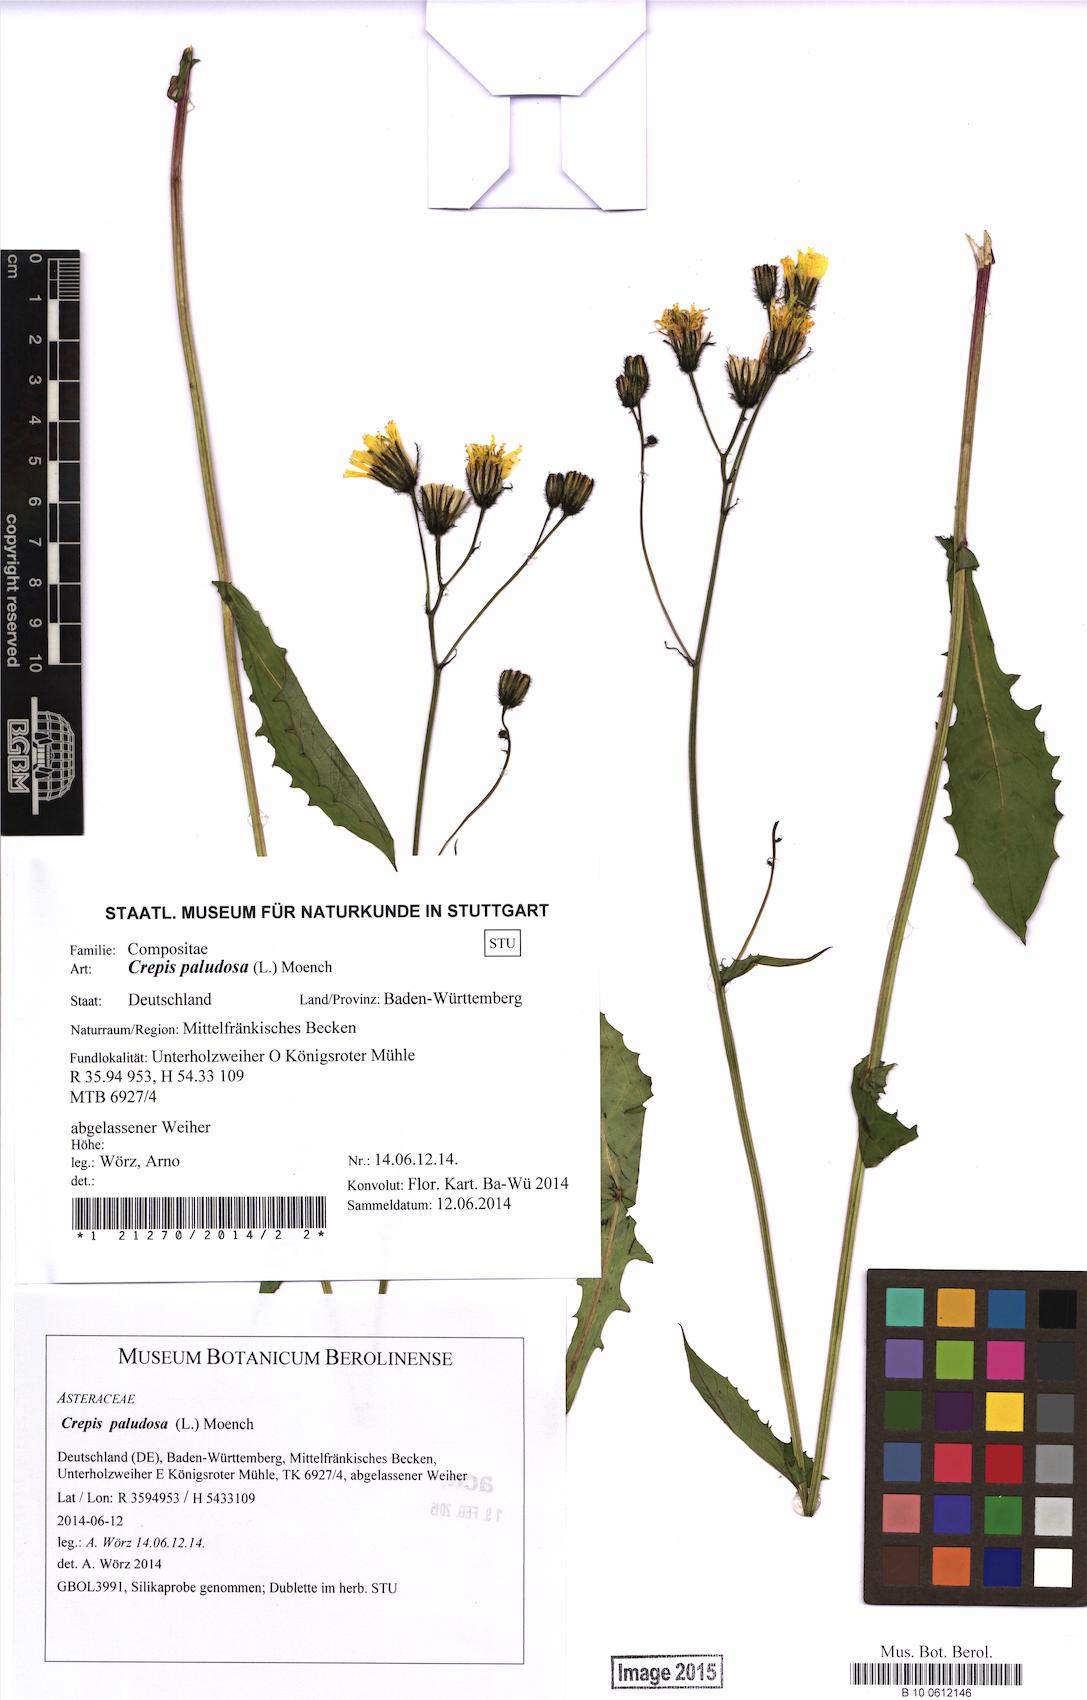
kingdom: Plantae
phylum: Tracheophyta
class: Magnoliopsida
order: Asterales
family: Asteraceae
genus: Crepis
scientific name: Crepis paludosa
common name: Marsh hawk's-beard
